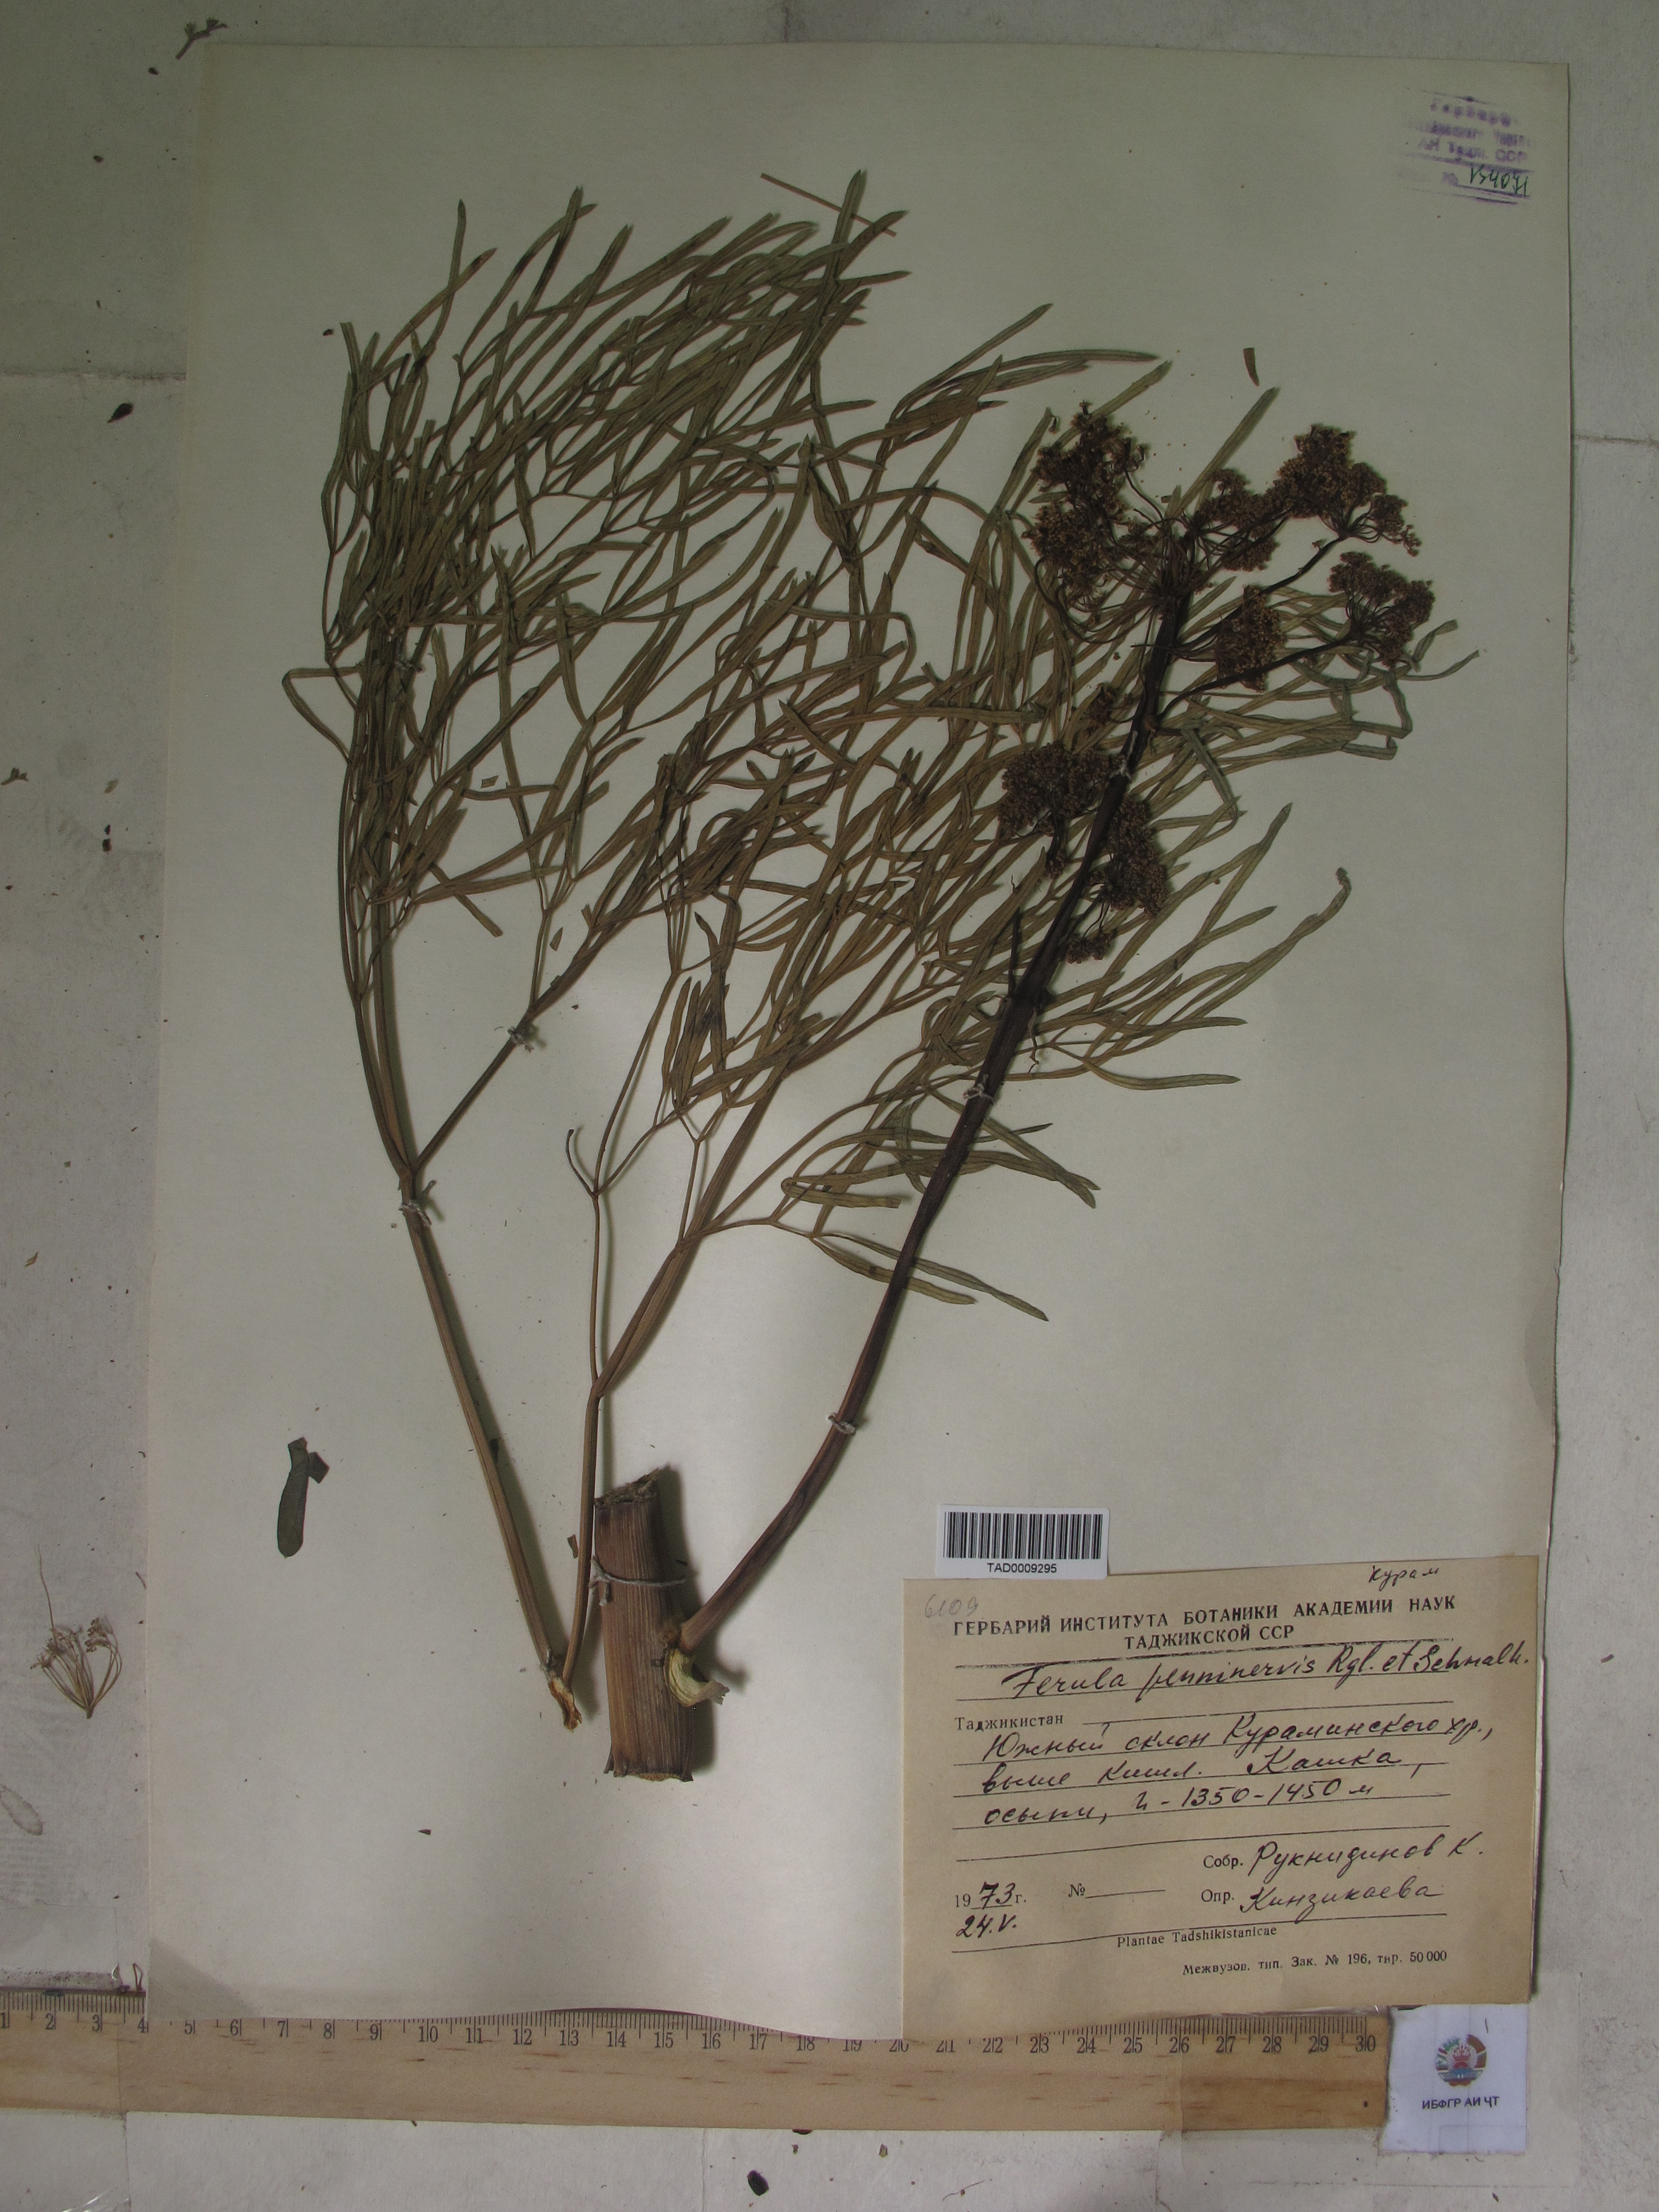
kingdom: Plantae
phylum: Tracheophyta
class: Magnoliopsida
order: Apiales
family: Apiaceae
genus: Ferula
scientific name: Ferula
